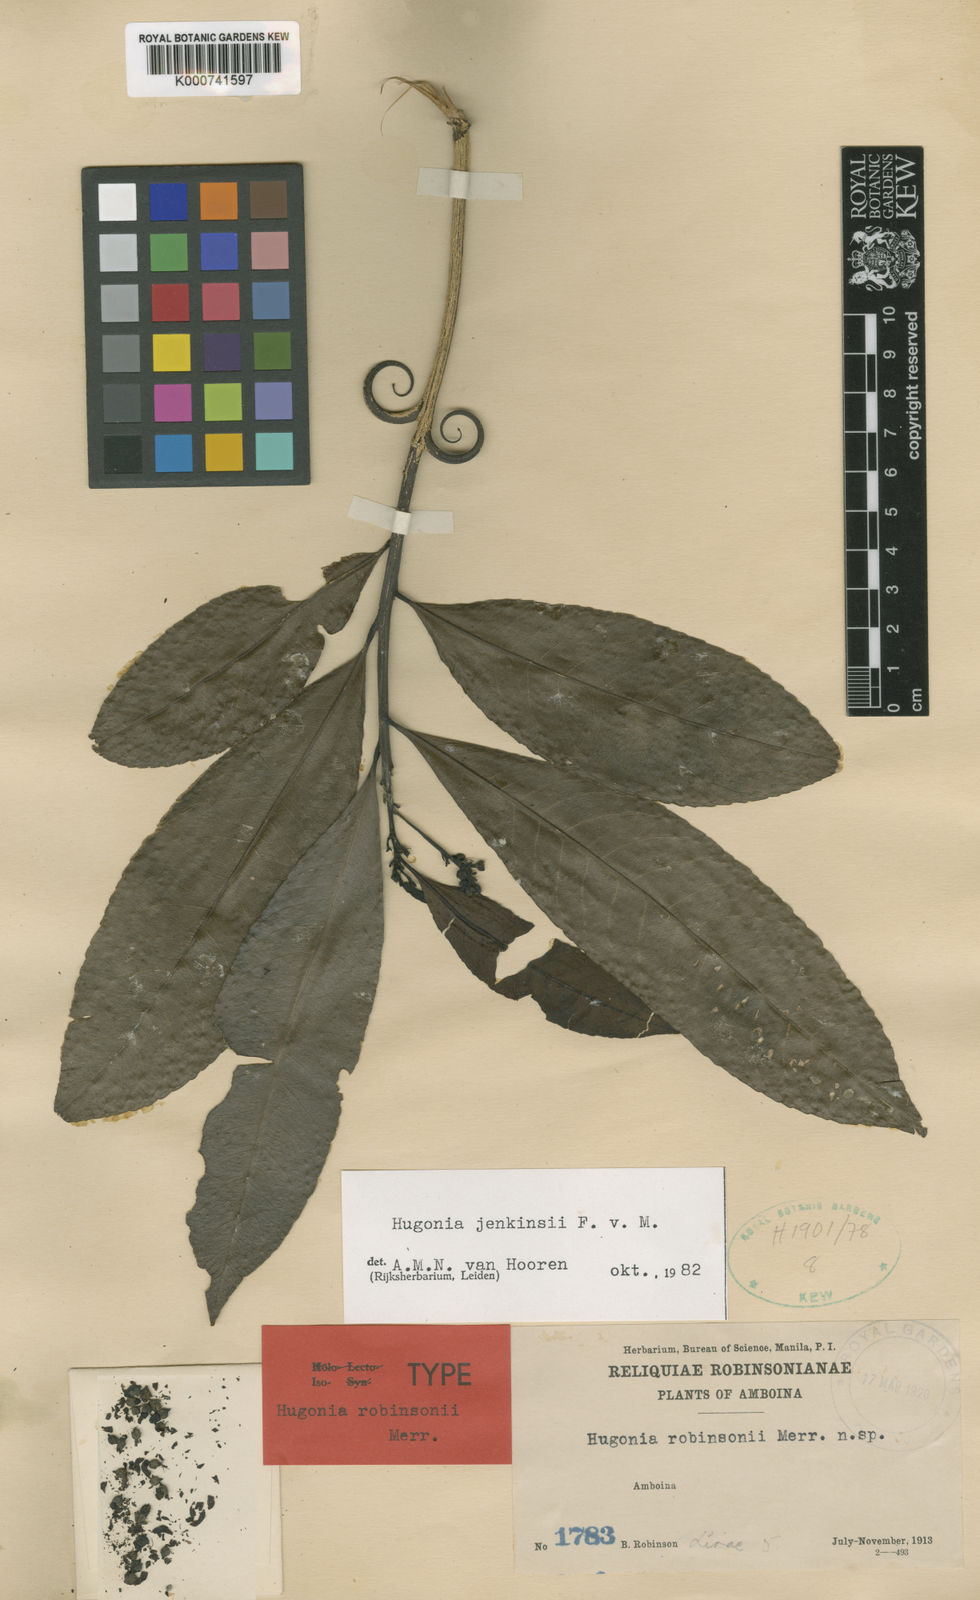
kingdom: Plantae
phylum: Tracheophyta
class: Magnoliopsida
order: Malpighiales
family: Linaceae
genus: Durandea
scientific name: Durandea jenkinsii
